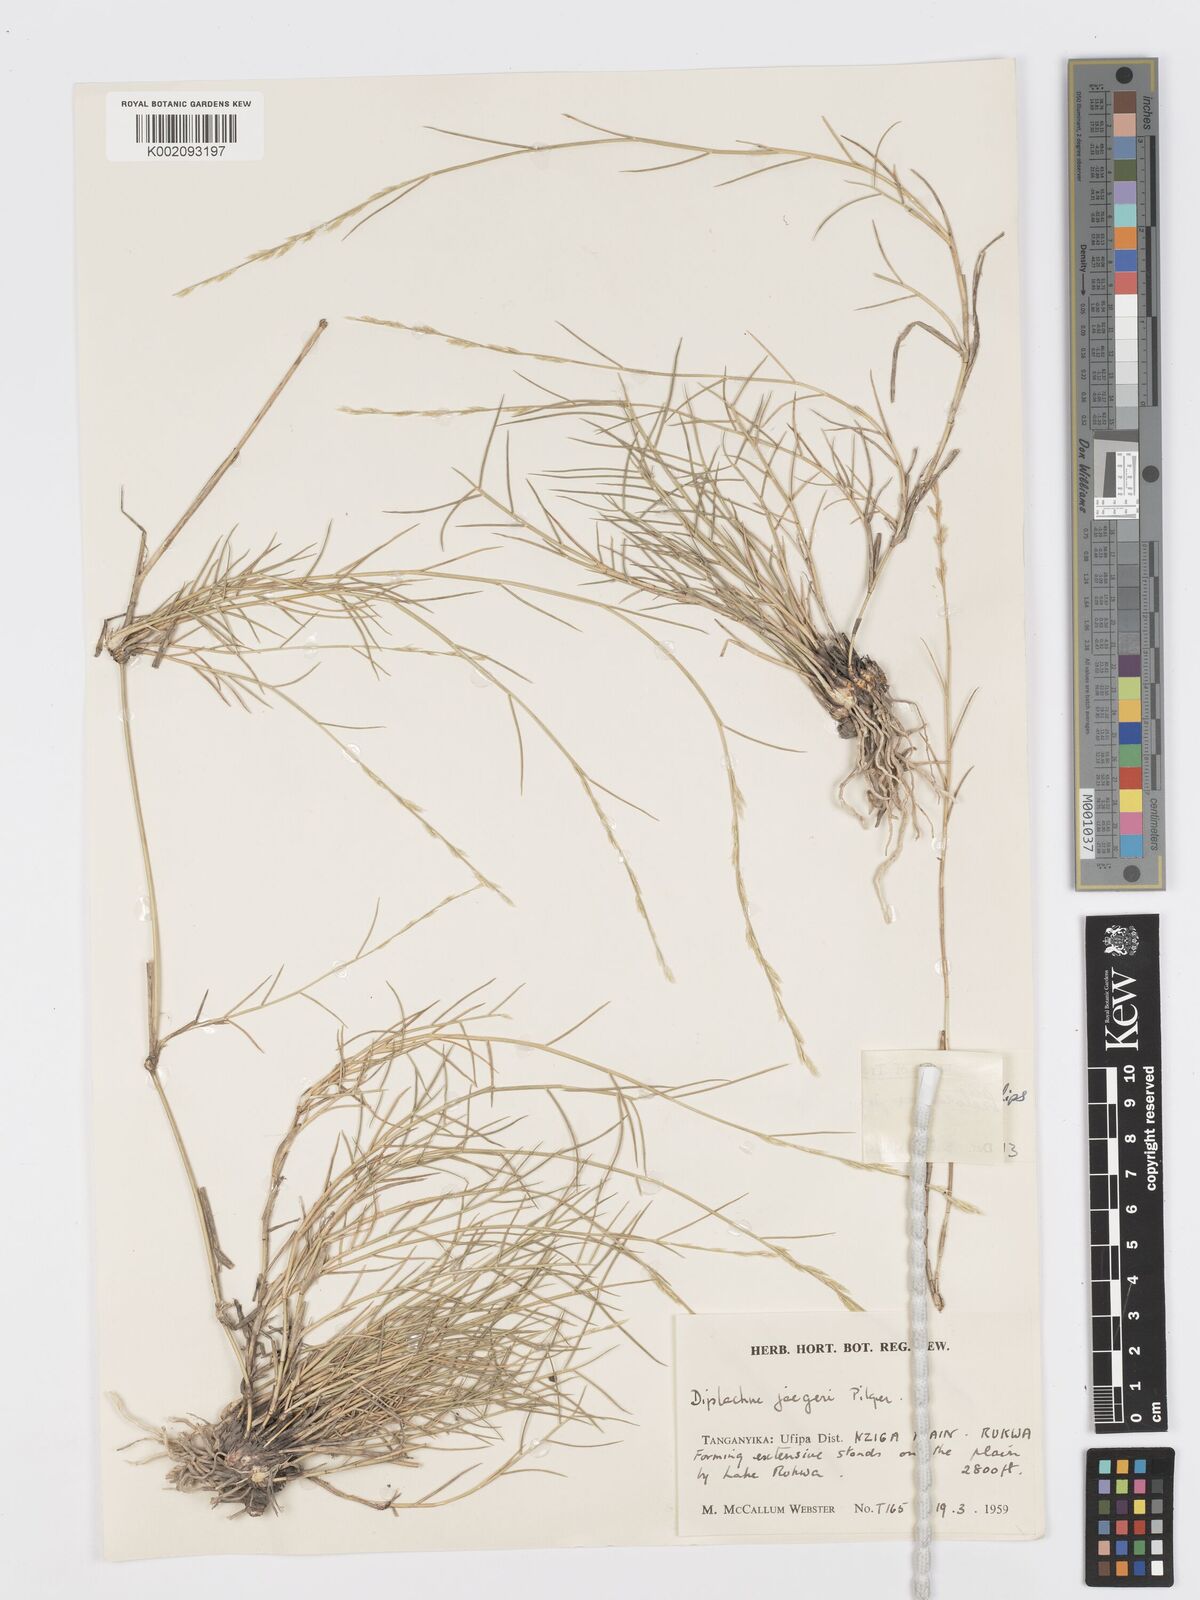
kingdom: Plantae
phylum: Tracheophyta
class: Liliopsida
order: Poales
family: Poaceae
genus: Psilolemma
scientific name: Psilolemma jaegeri
